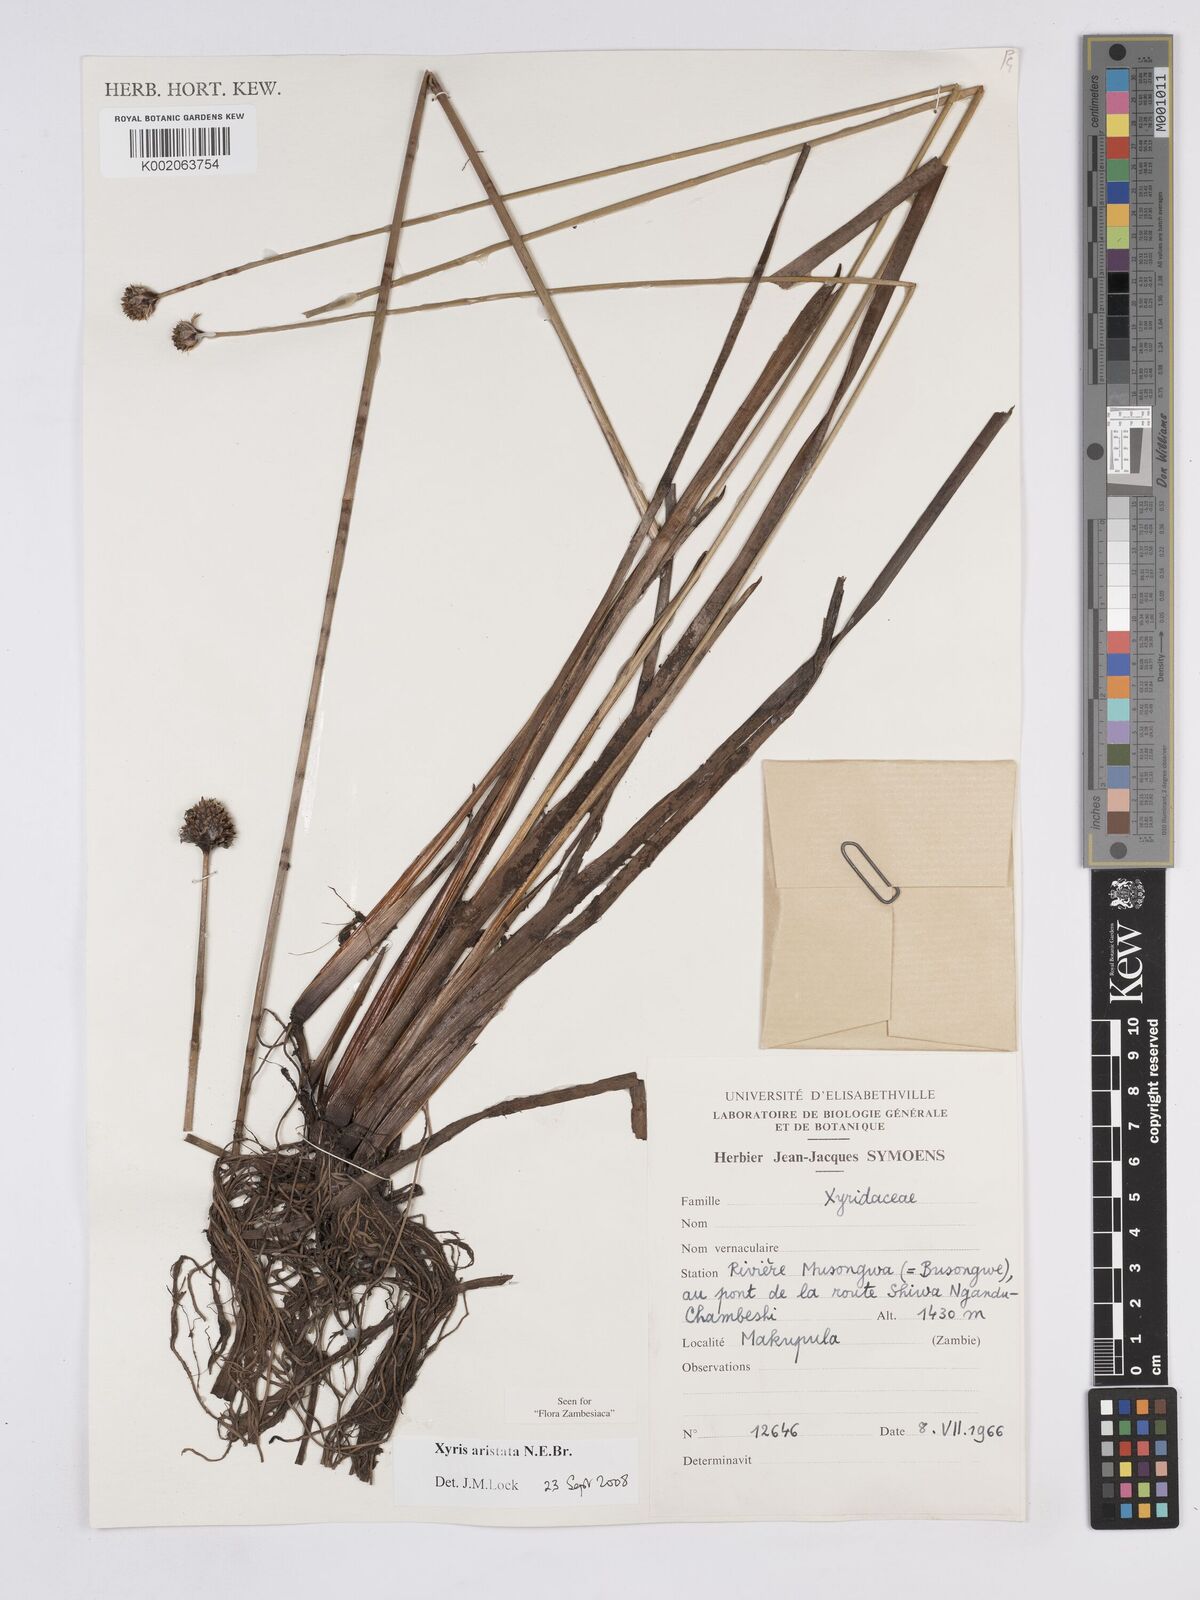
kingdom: Plantae
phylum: Tracheophyta
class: Liliopsida
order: Poales
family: Xyridaceae
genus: Xyris
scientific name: Xyris aristata
